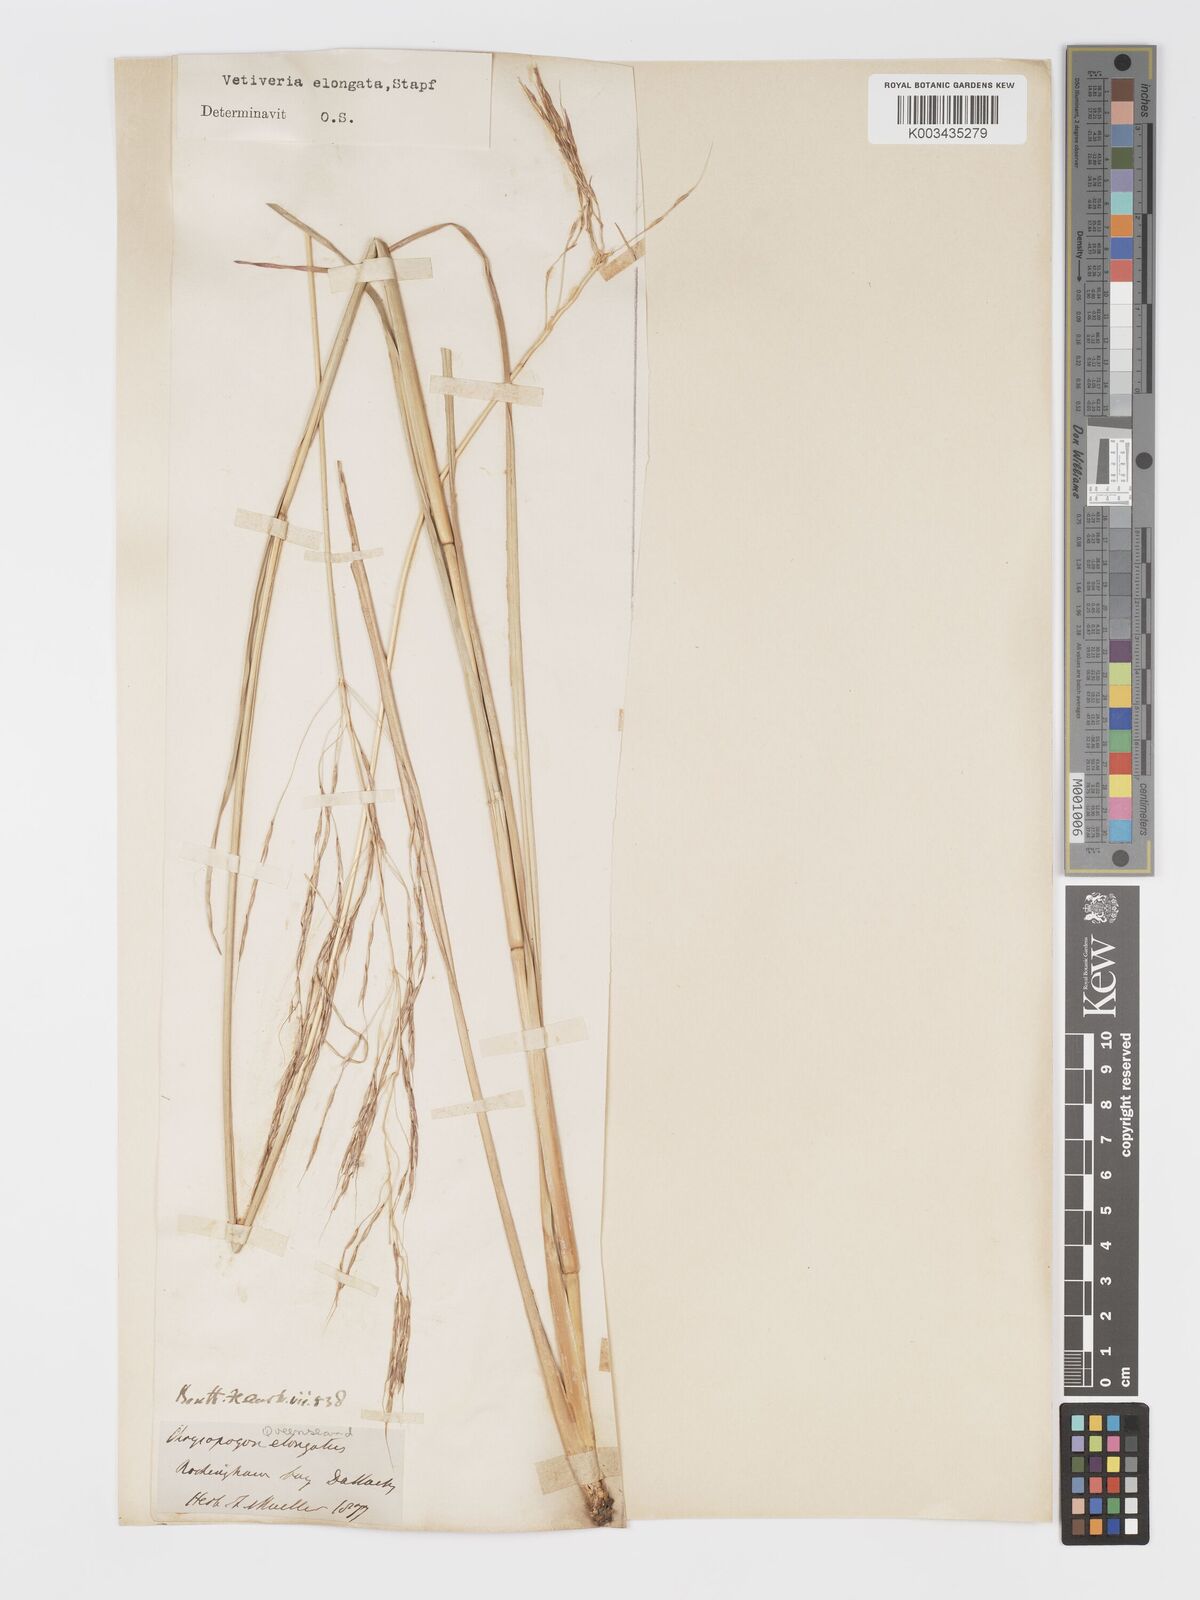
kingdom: Plantae
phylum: Tracheophyta
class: Liliopsida
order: Poales
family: Poaceae
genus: Chrysopogon
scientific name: Chrysopogon filipes
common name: Australian vetiver
